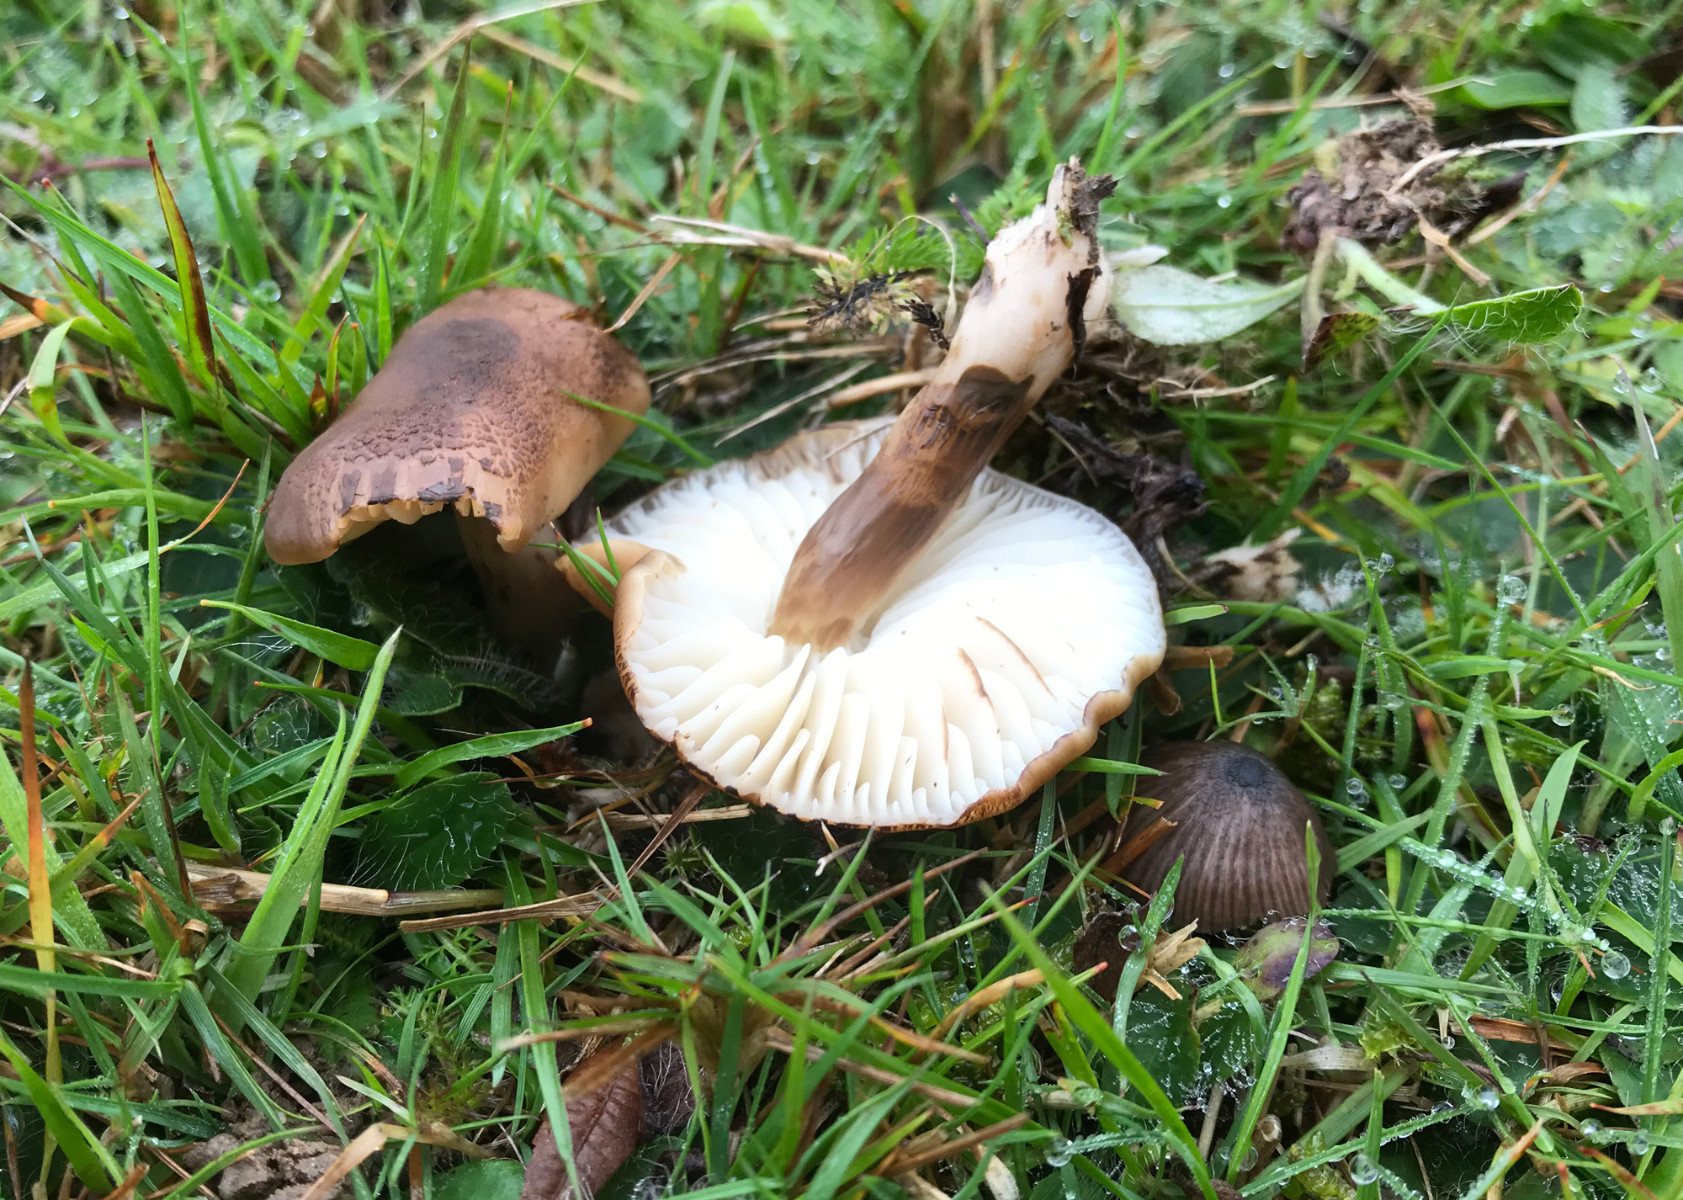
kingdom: Fungi
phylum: Basidiomycota
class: Agaricomycetes
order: Agaricales
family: Hygrophoraceae
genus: Hygrocybe
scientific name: Hygrocybe ingrata
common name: Jensens vokshat
